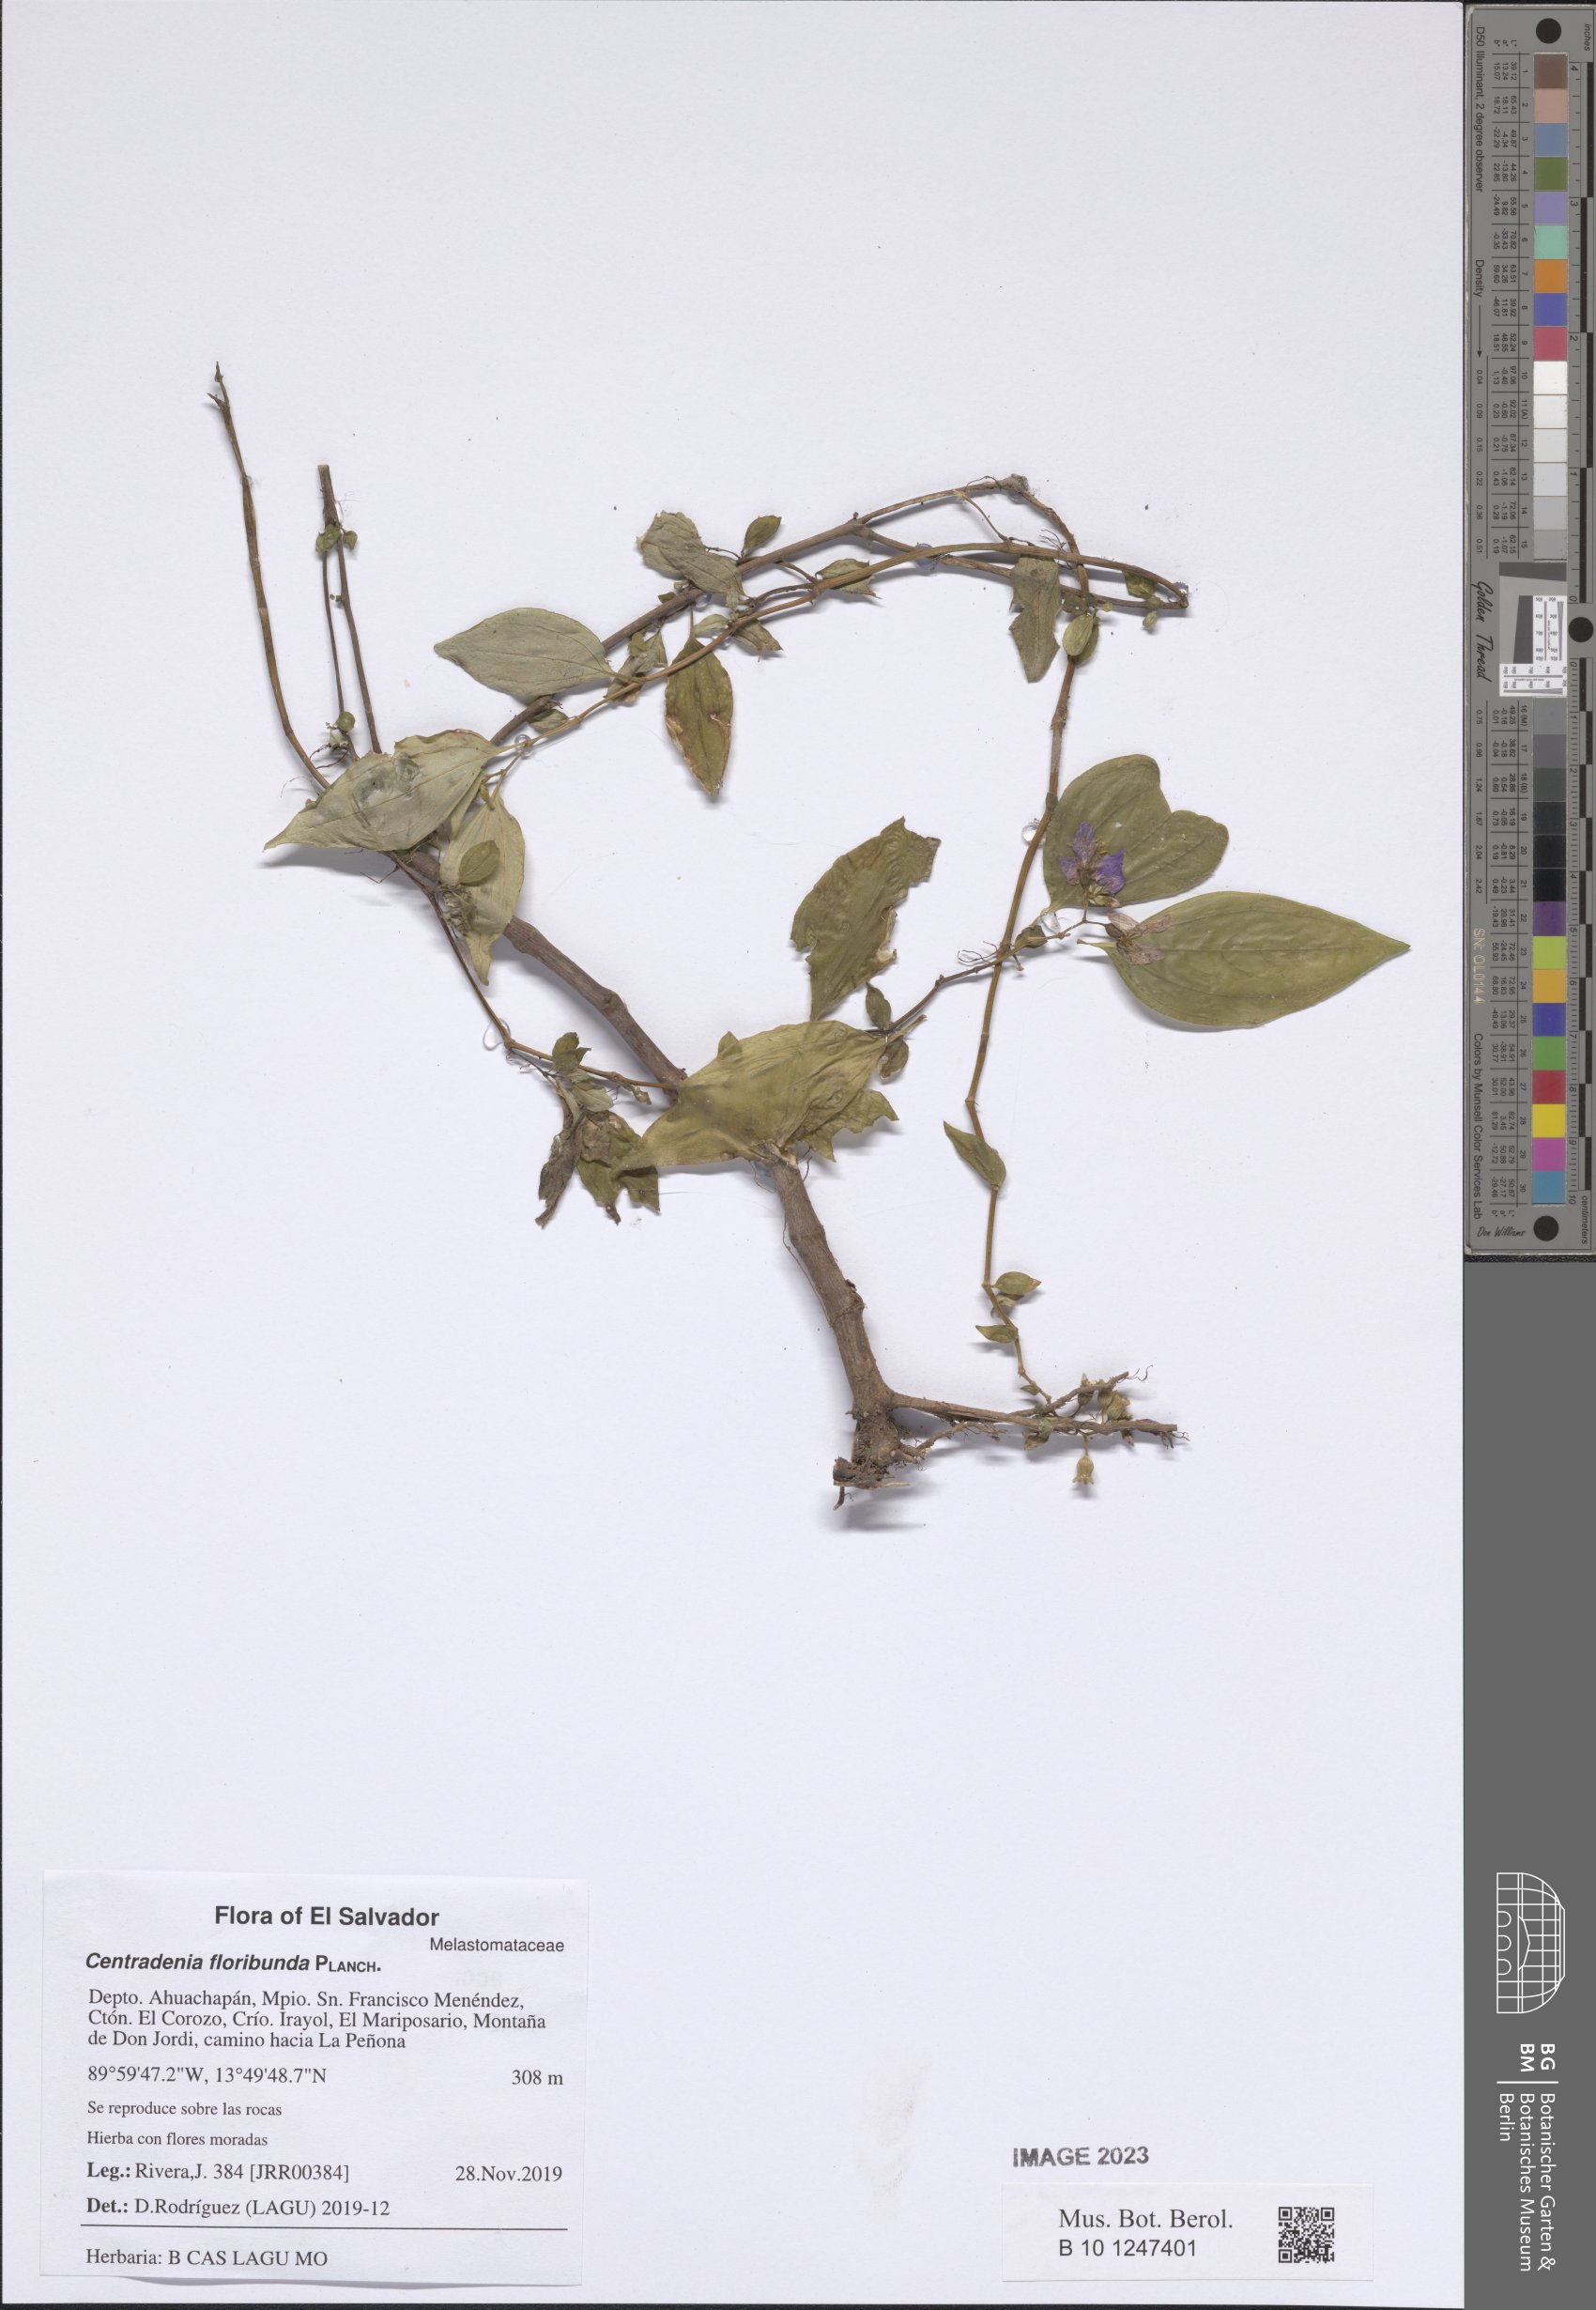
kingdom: Plantae
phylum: Tracheophyta
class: Magnoliopsida
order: Myrtales
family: Melastomataceae
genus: Centradenia
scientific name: Centradenia floribunda
